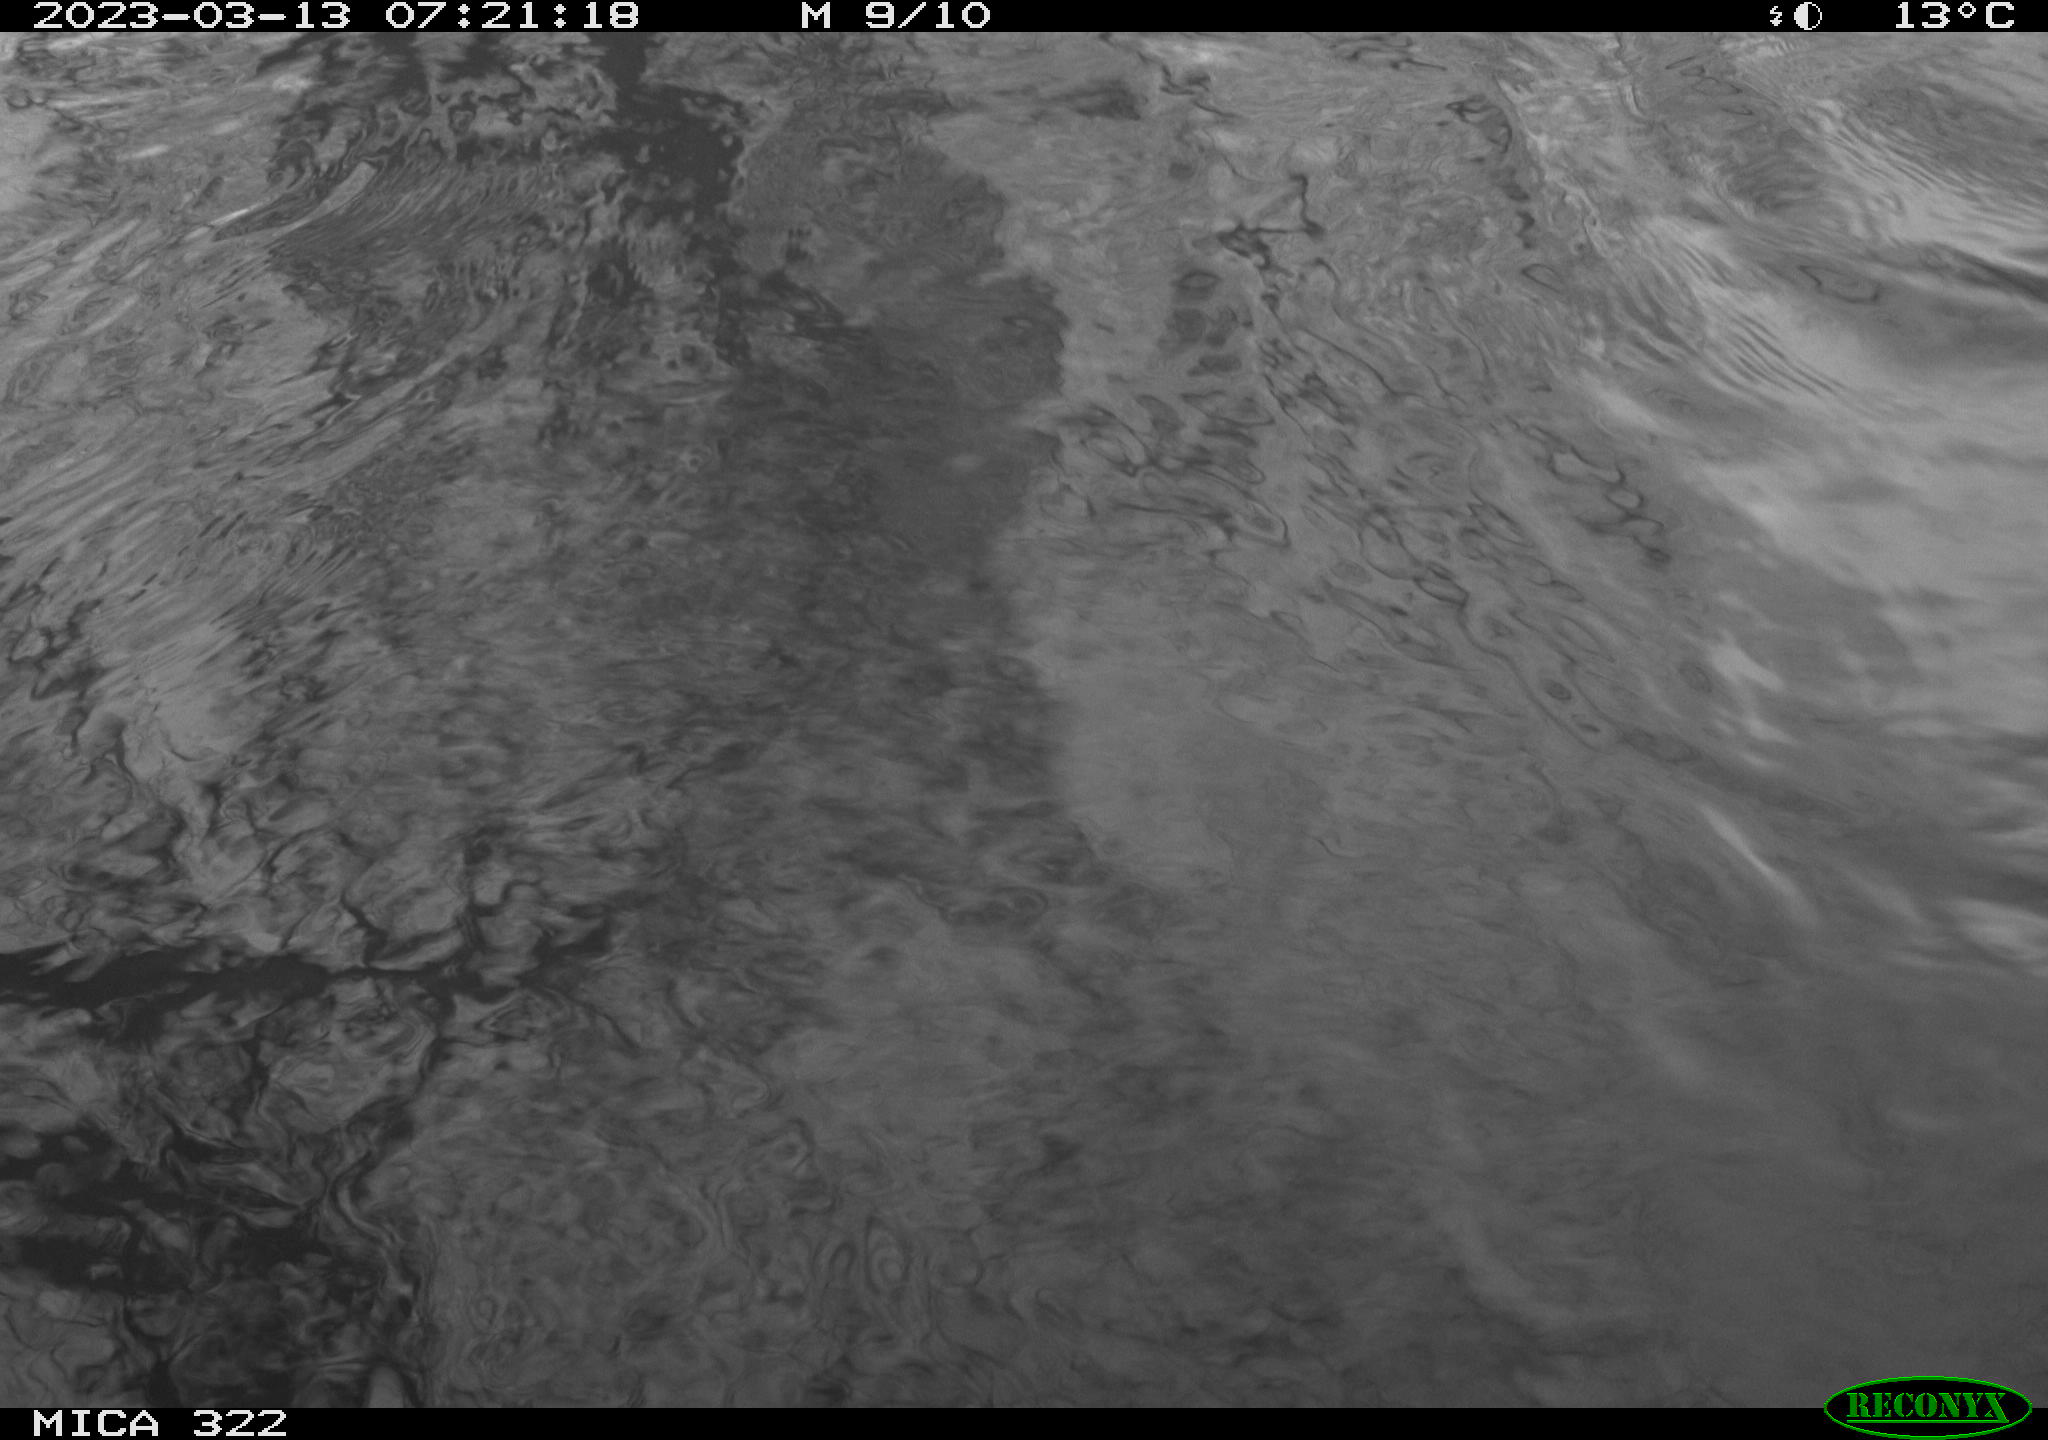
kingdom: Animalia
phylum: Chordata
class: Aves
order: Anseriformes
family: Anatidae
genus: Anas
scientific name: Anas
